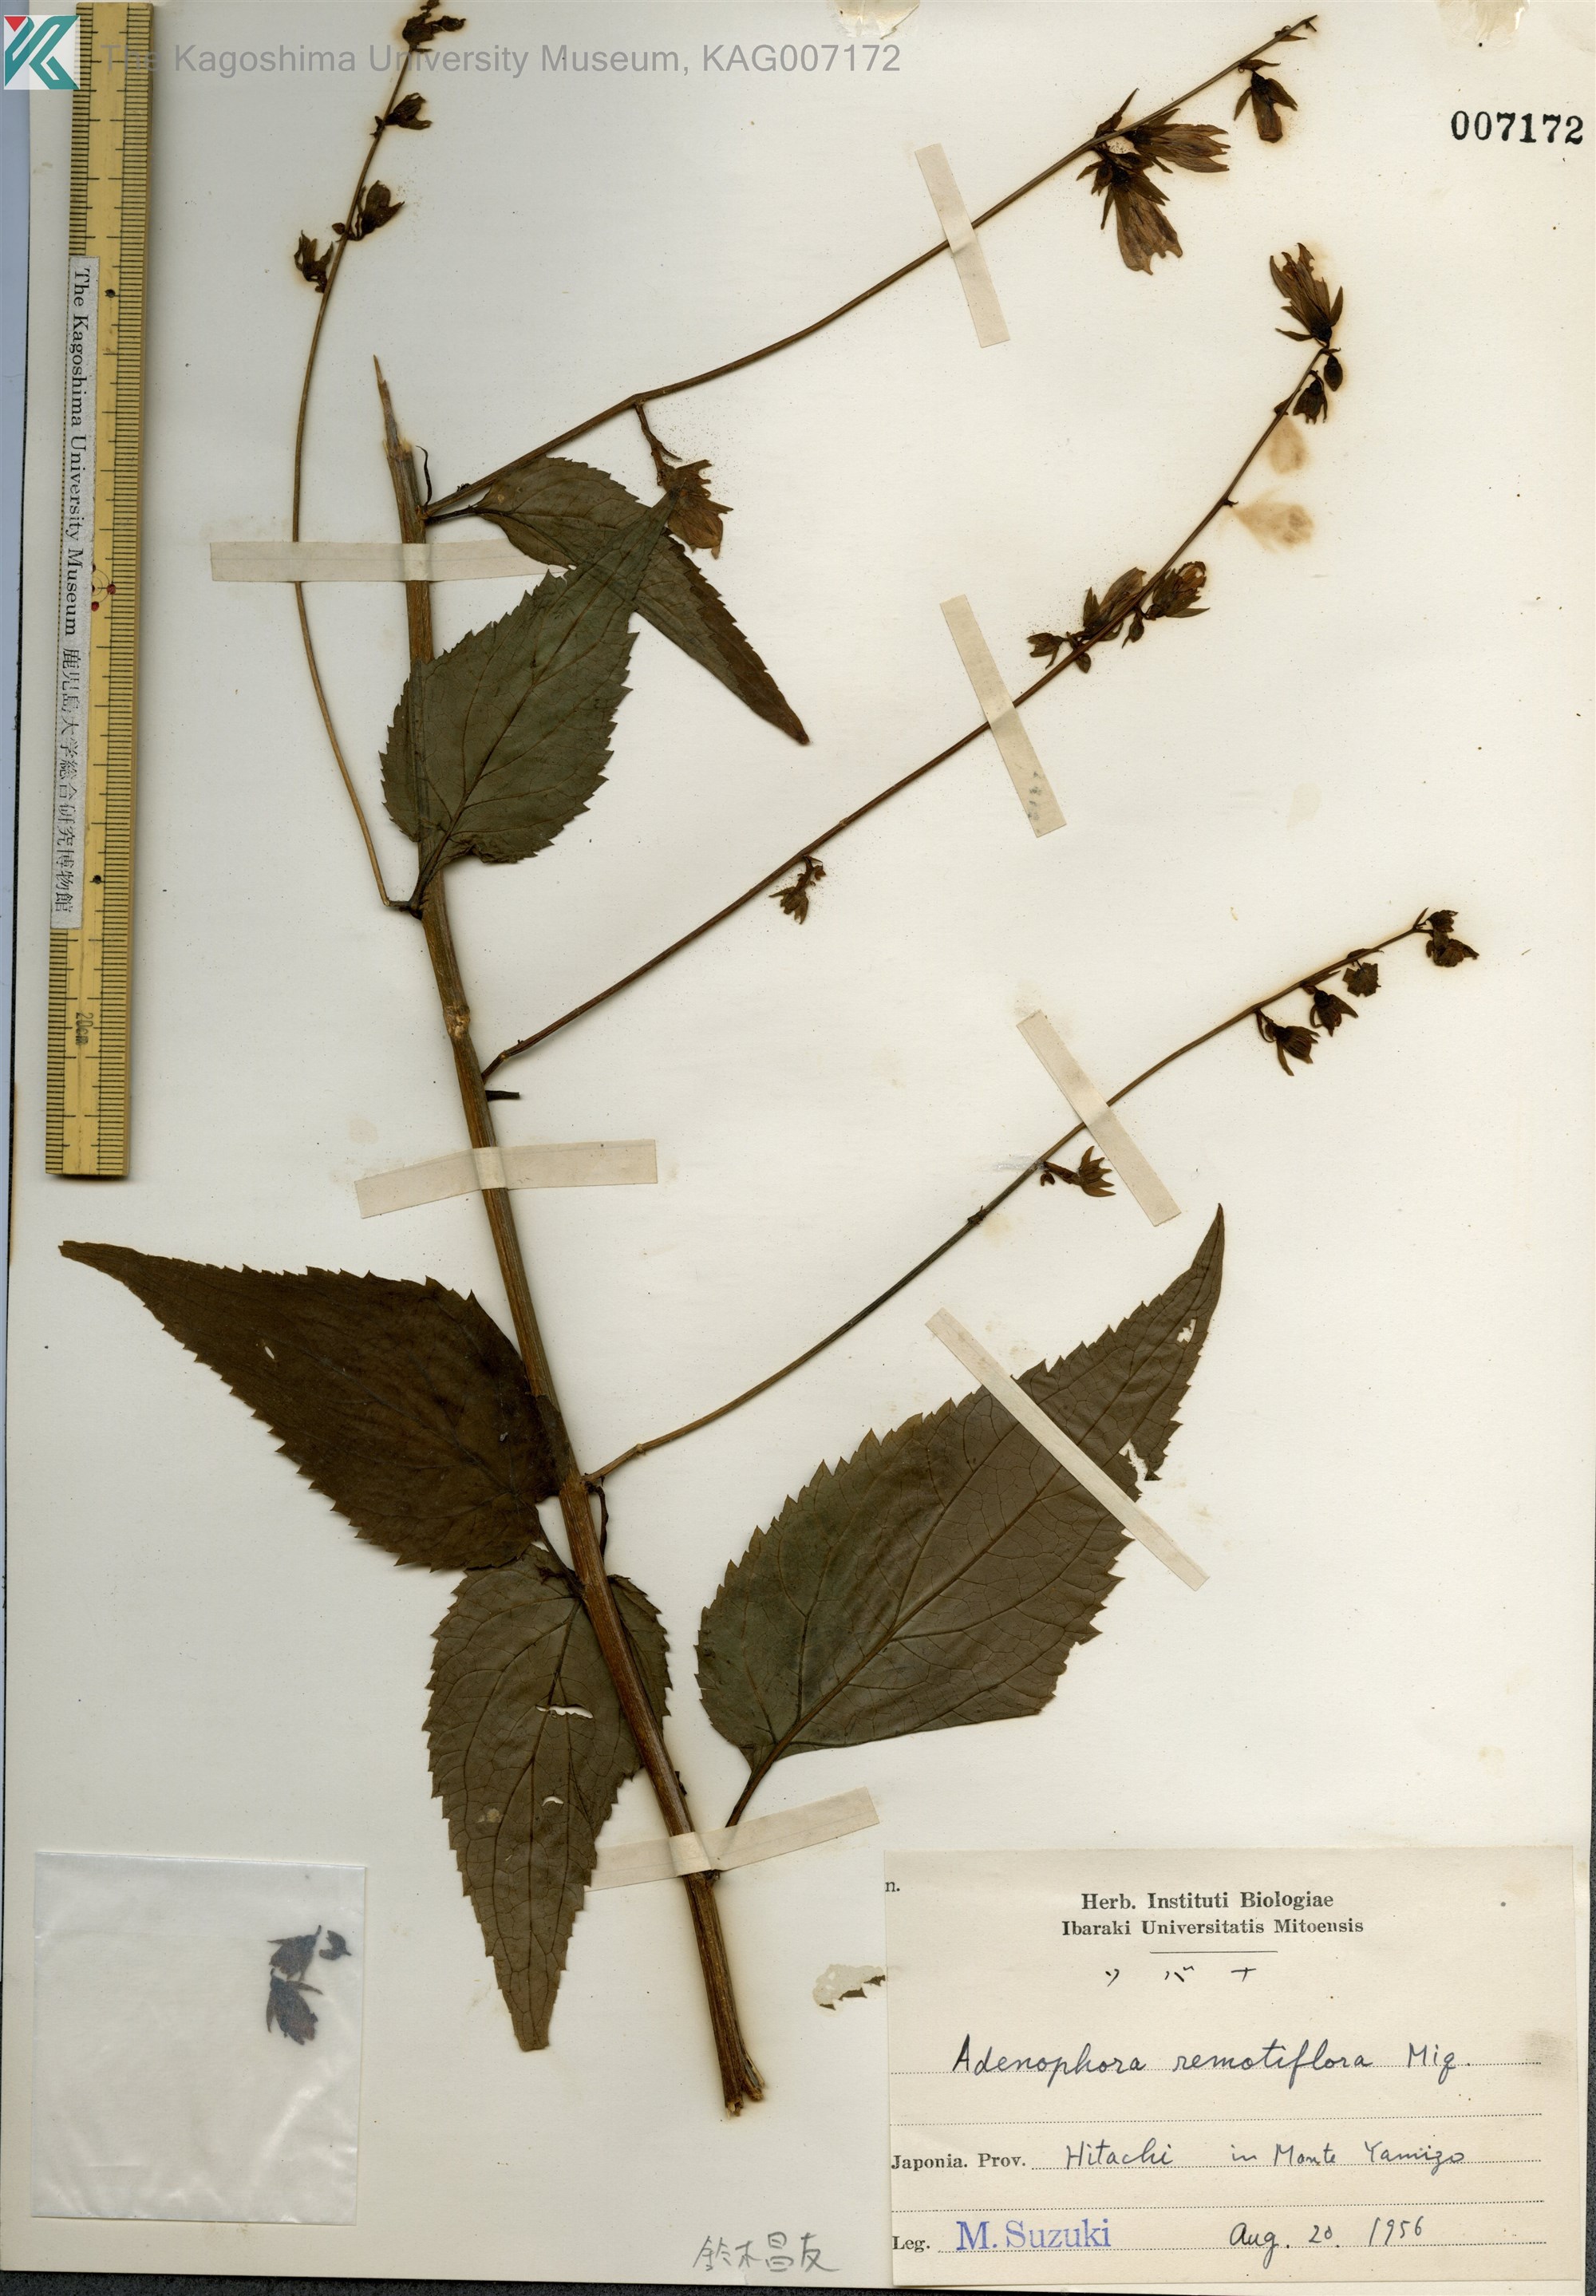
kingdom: Plantae
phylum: Tracheophyta
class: Magnoliopsida
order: Asterales
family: Campanulaceae
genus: Adenophora
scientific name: Adenophora remotiflora
